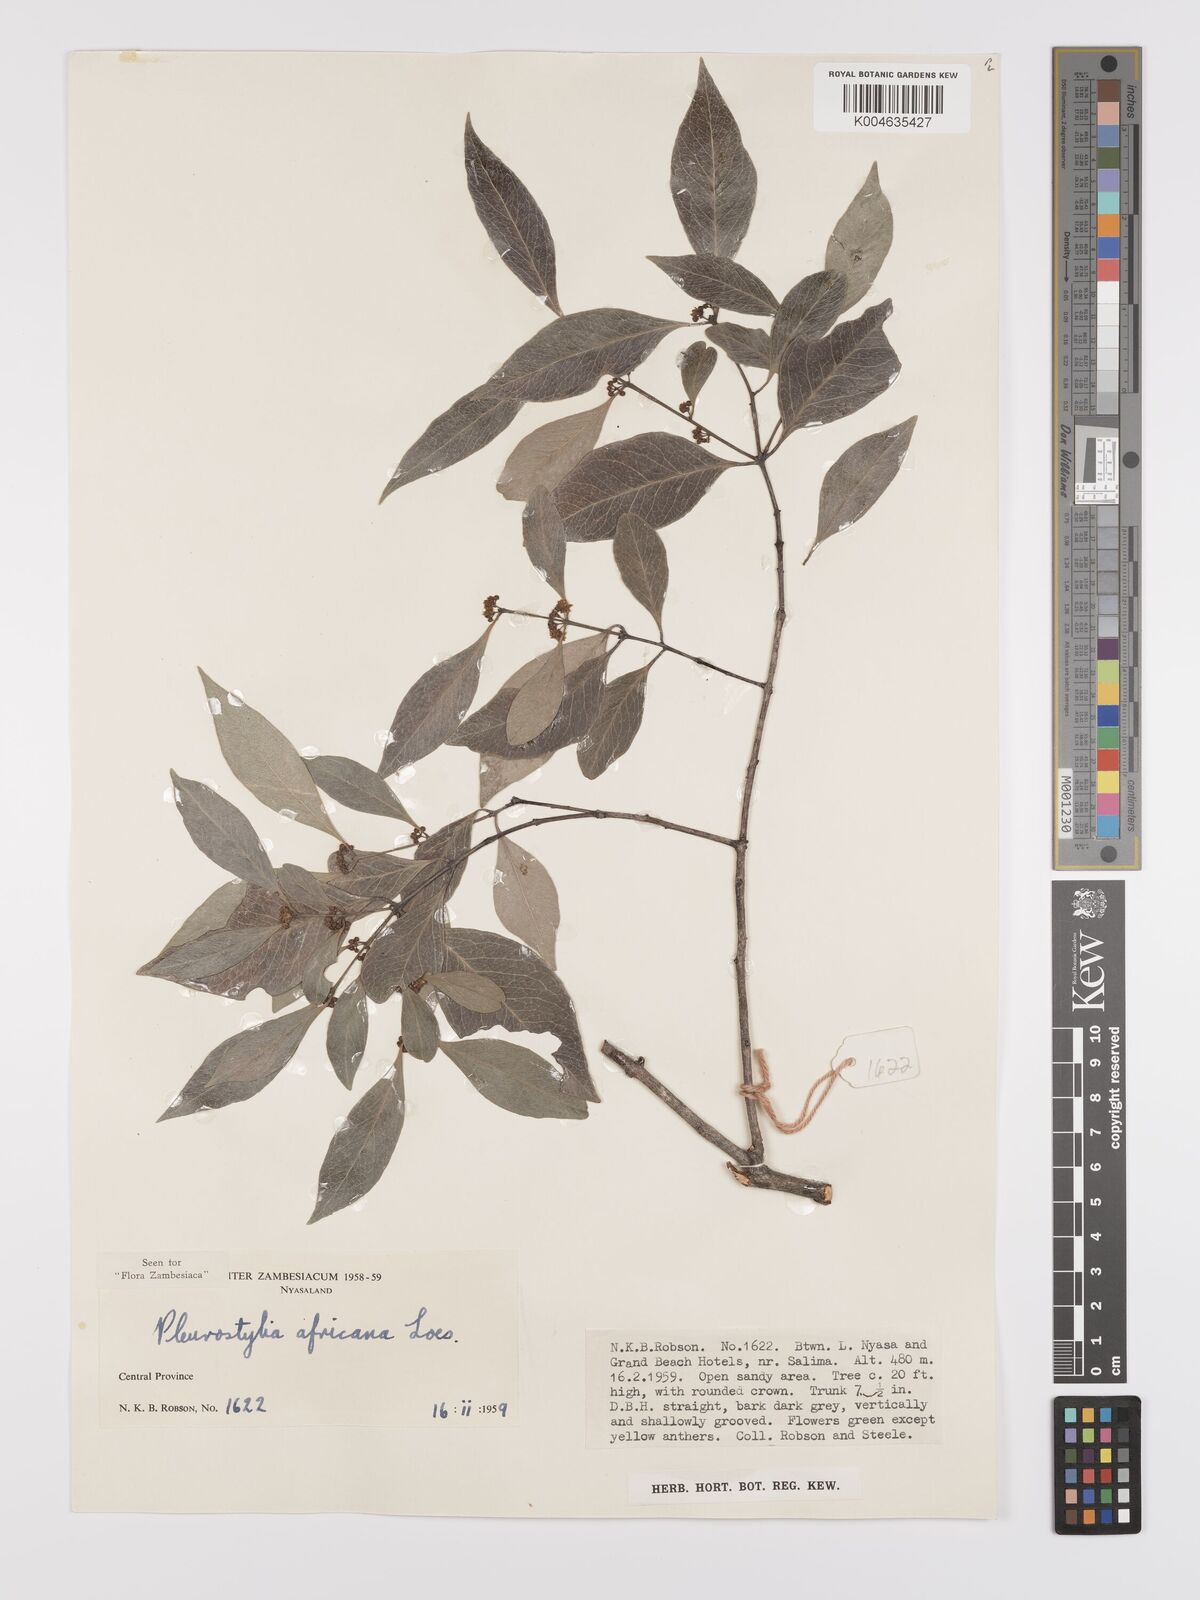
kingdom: Plantae
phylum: Tracheophyta
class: Magnoliopsida
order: Celastrales
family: Celastraceae
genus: Pleurostylia
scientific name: Pleurostylia africana
